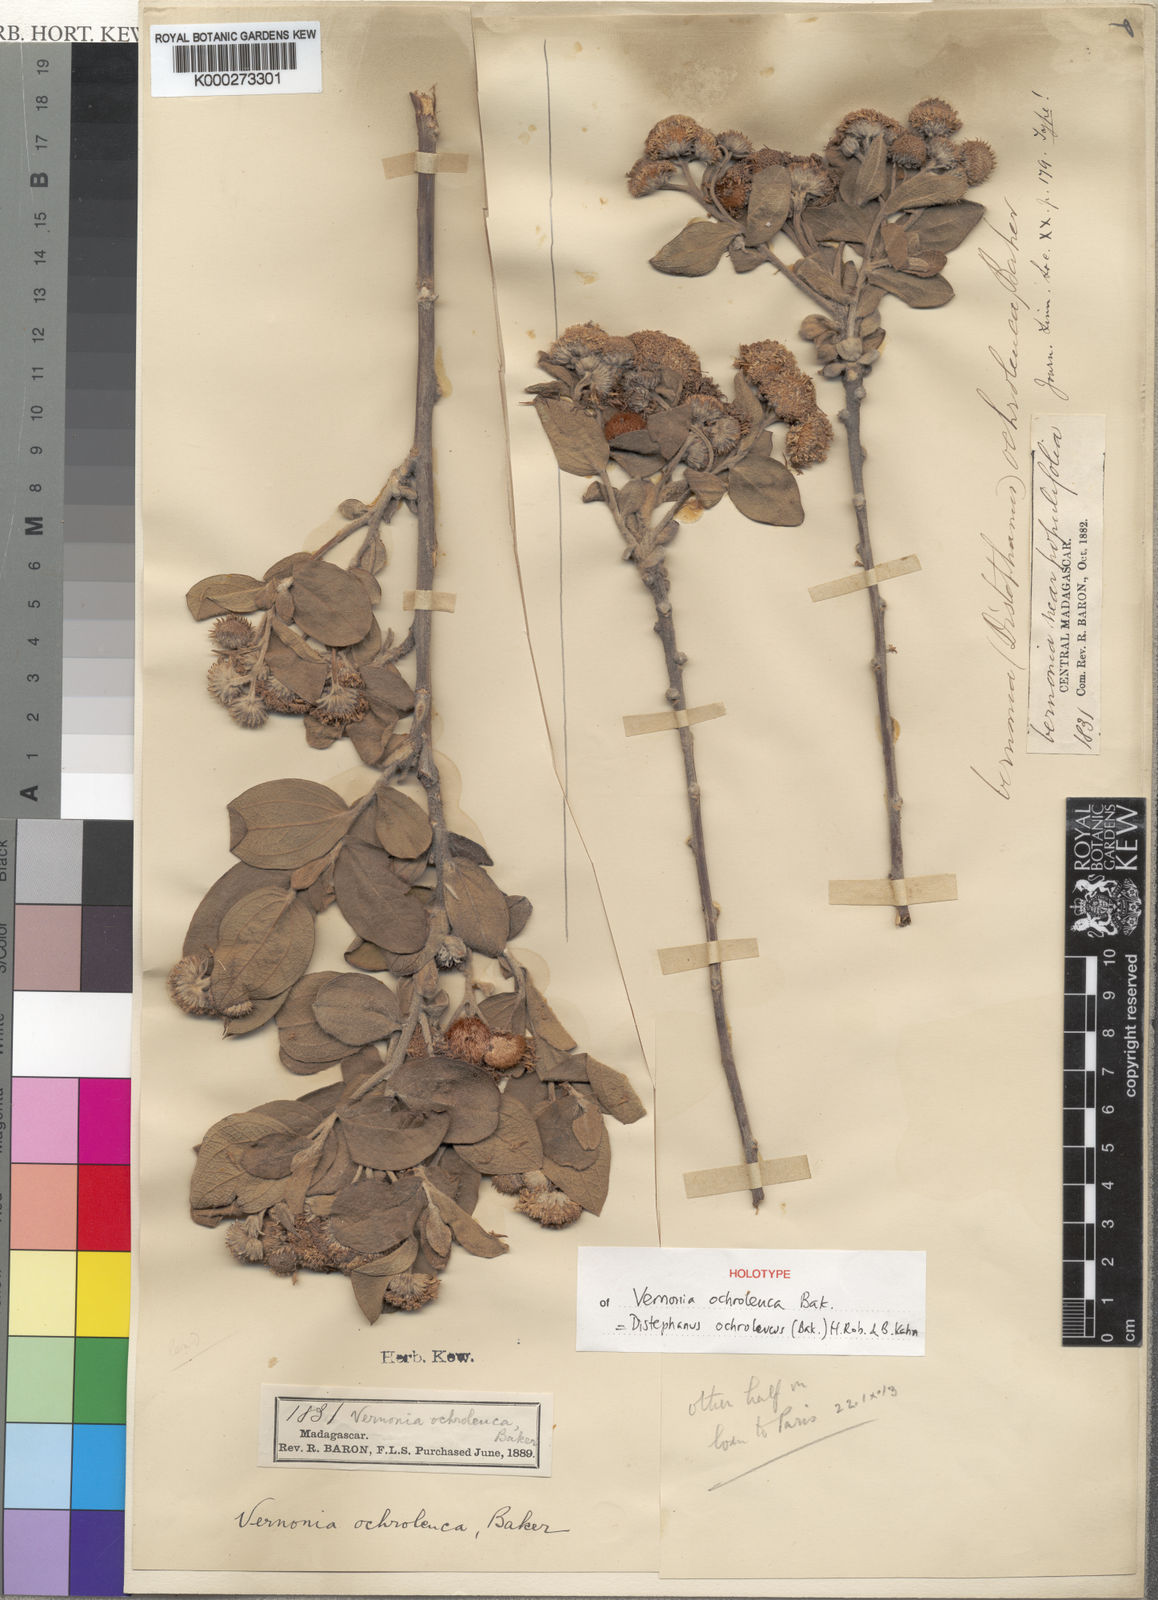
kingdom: Plantae
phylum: Tracheophyta
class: Magnoliopsida
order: Asterales
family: Asteraceae
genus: Distephanus
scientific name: Distephanus ochroleucus
